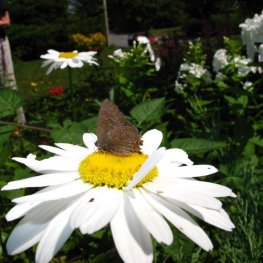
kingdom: Animalia
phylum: Arthropoda
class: Insecta
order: Lepidoptera
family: Lycaenidae
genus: Satyrium
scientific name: Satyrium liparops
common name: Striped Hairstreak
